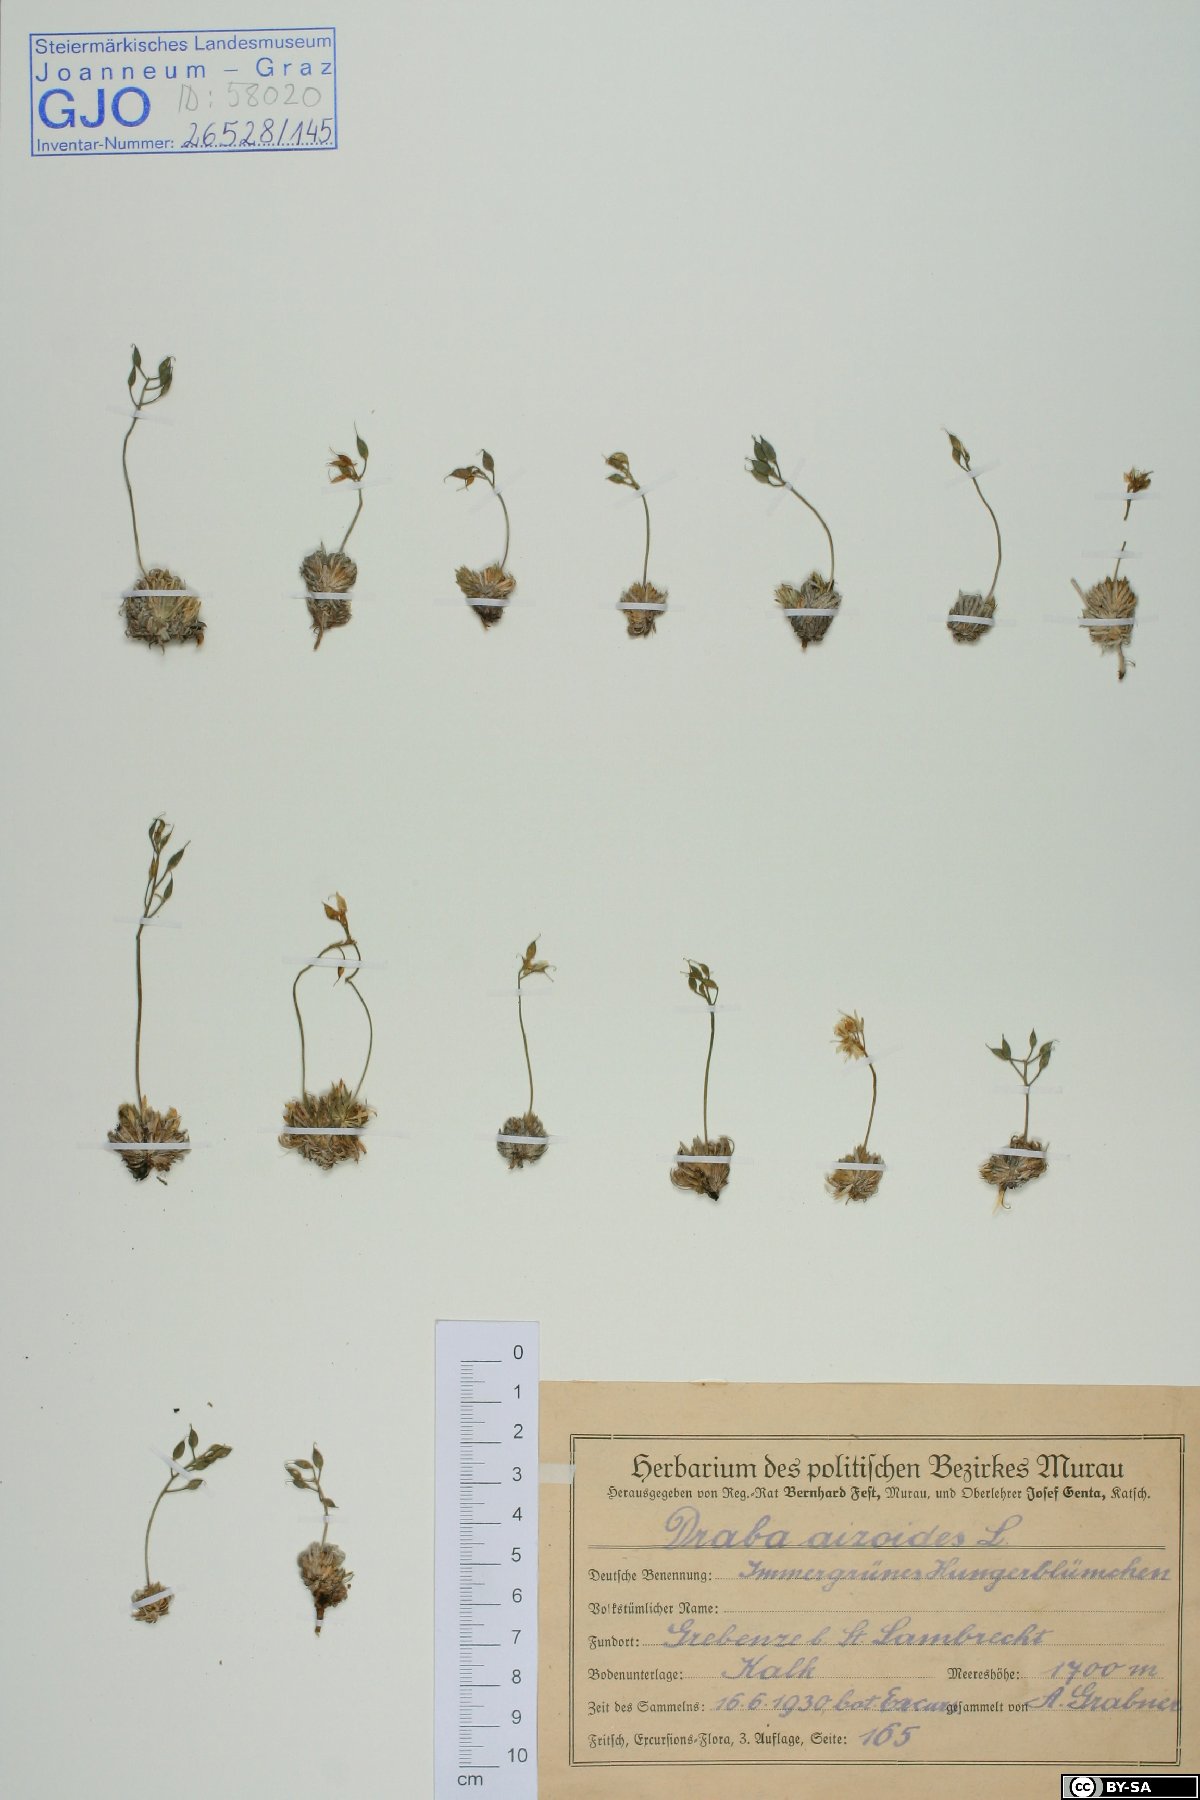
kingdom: Plantae
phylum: Tracheophyta
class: Magnoliopsida
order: Brassicales
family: Brassicaceae
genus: Draba
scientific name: Draba aizoides
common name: Yellow whitlowgrass
